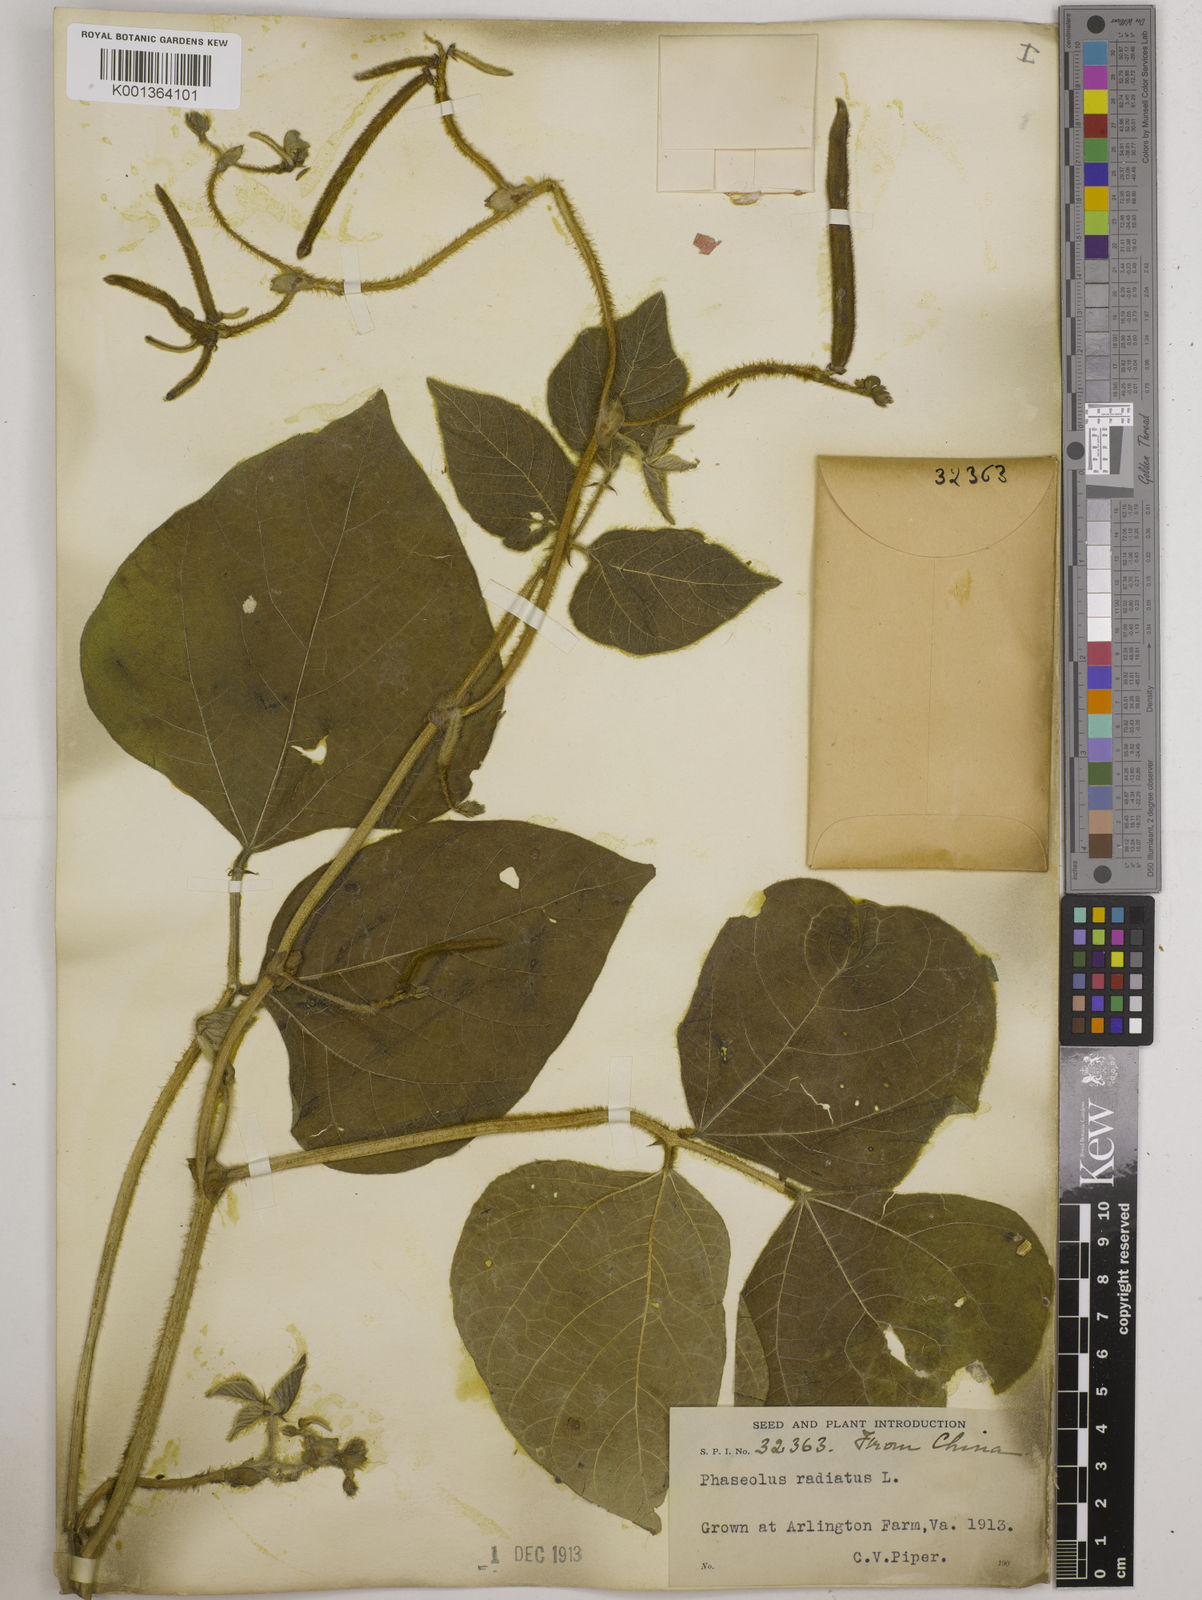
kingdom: Plantae
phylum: Tracheophyta
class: Magnoliopsida
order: Fabales
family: Fabaceae
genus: Vigna
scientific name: Vigna radiata
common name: Mung-bean
